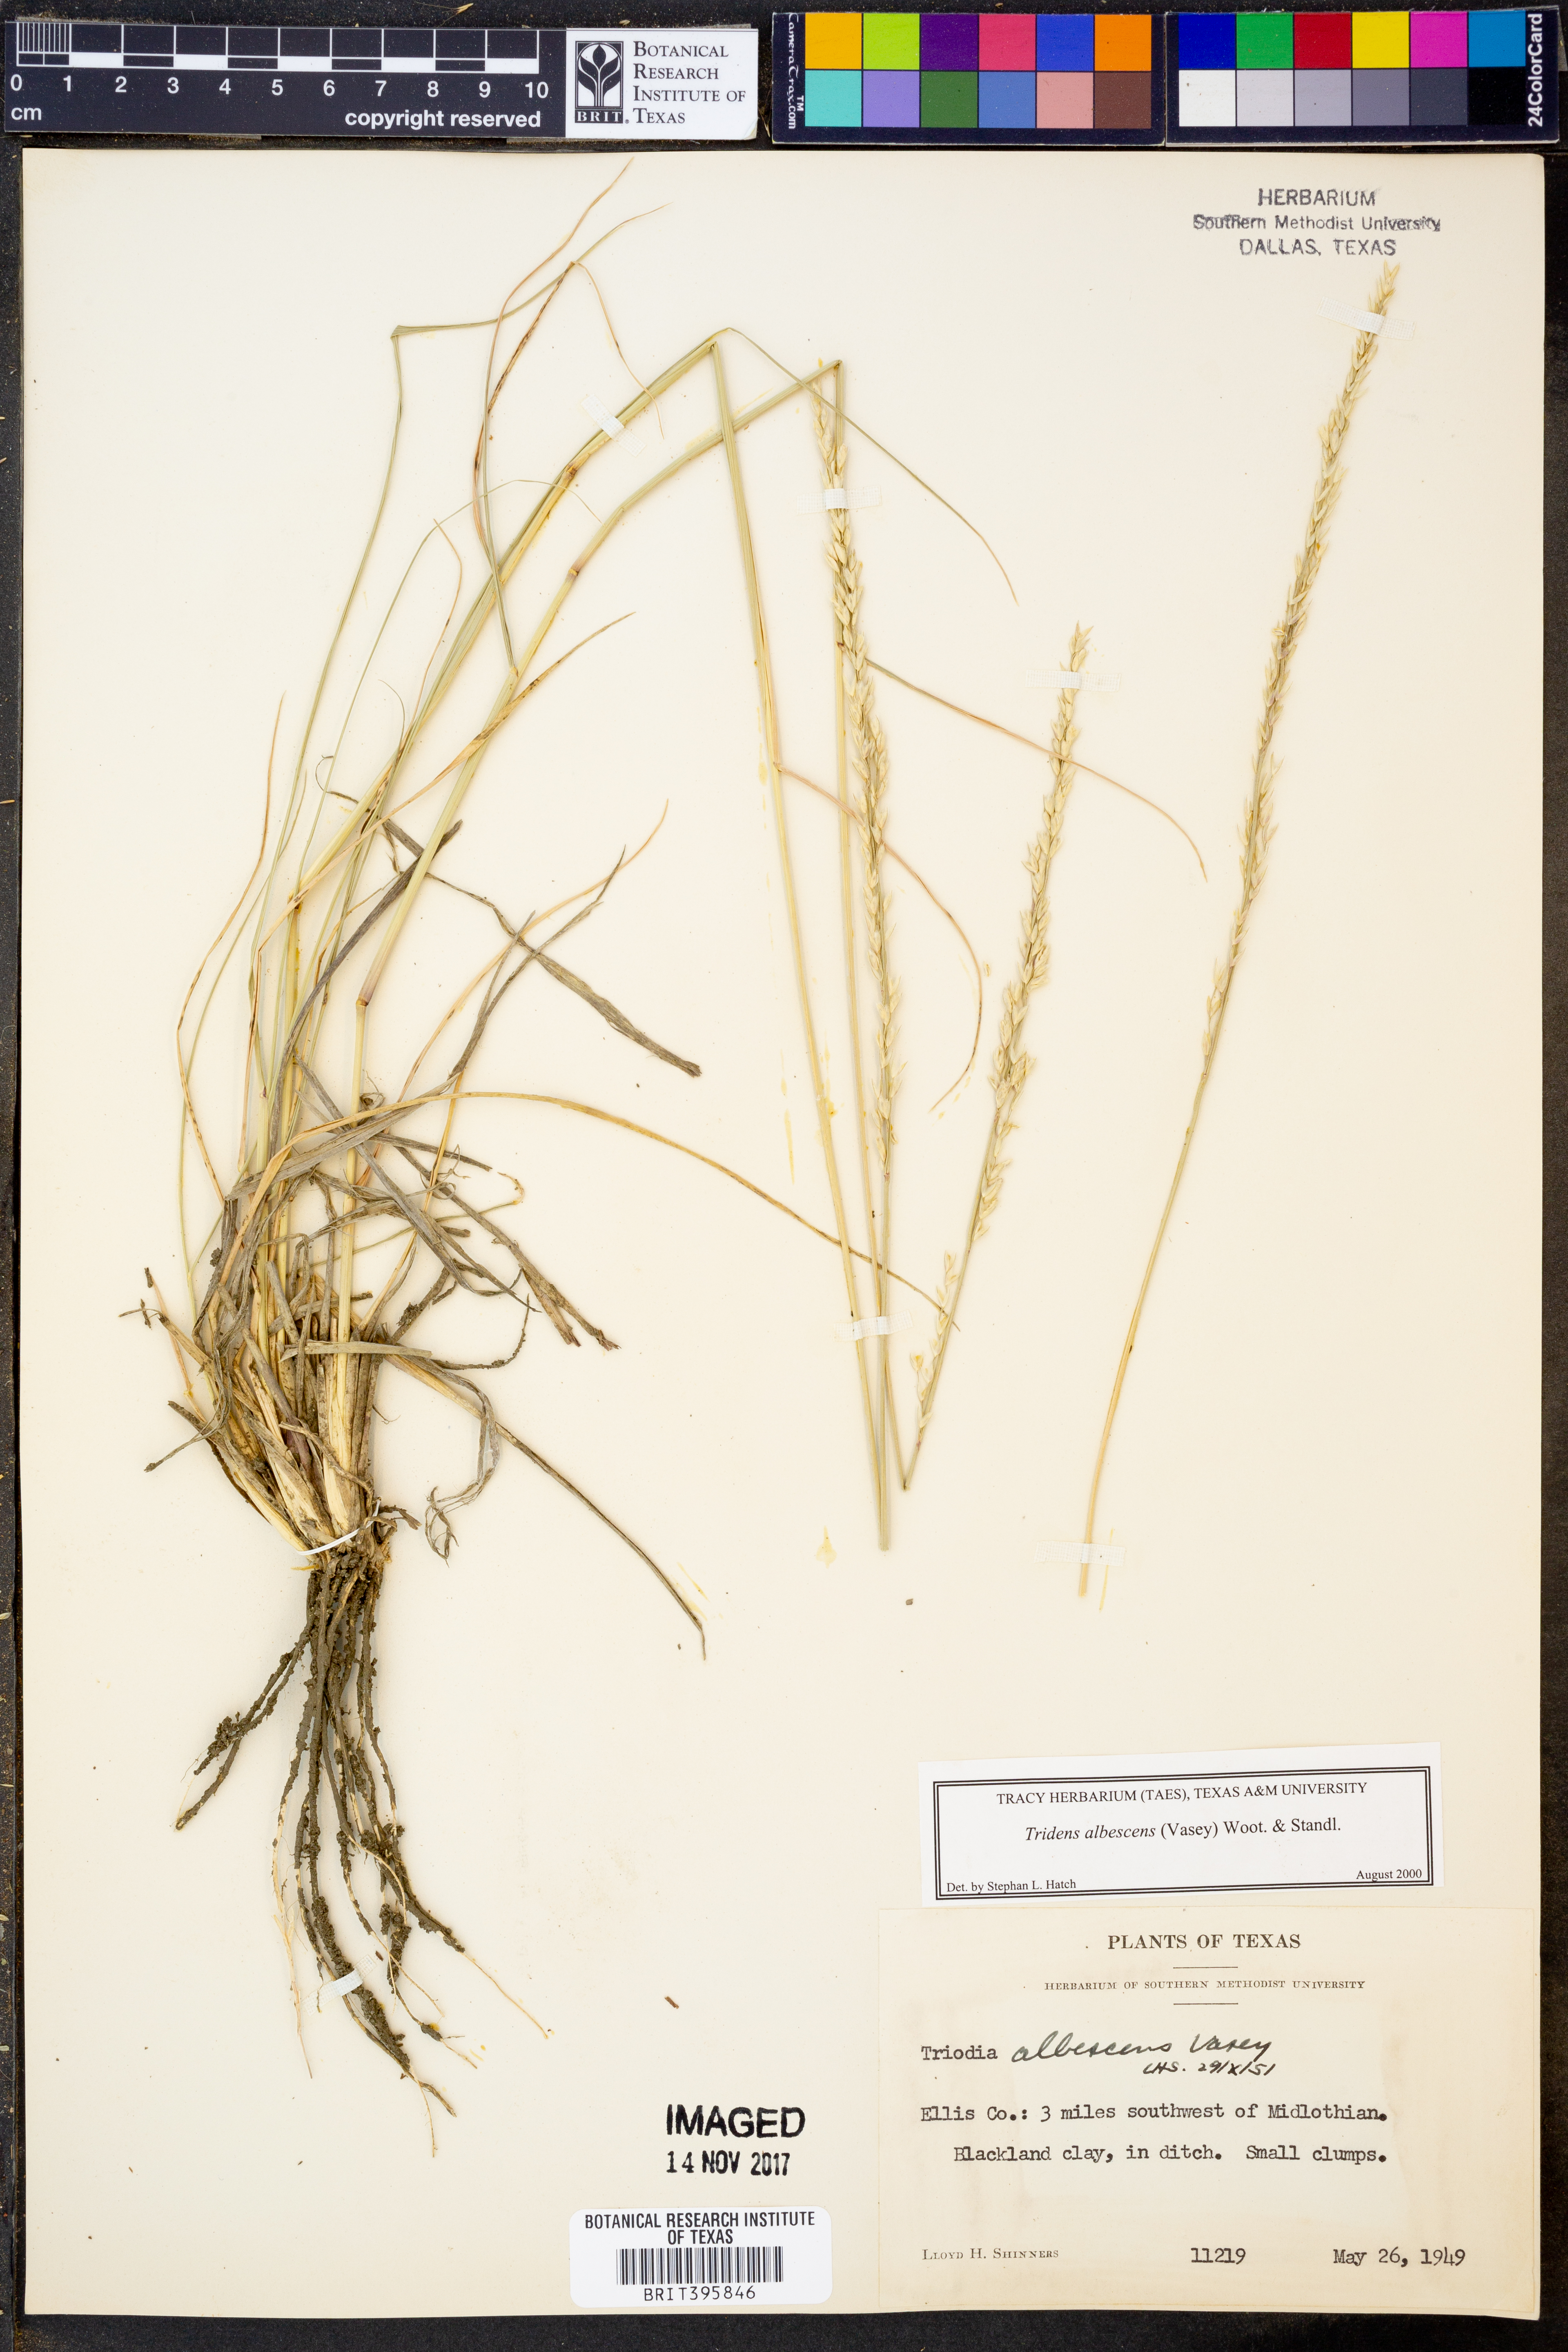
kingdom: Plantae
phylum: Tracheophyta
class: Liliopsida
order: Poales
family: Poaceae
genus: Tridens
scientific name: Tridens albescens
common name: White tridens
